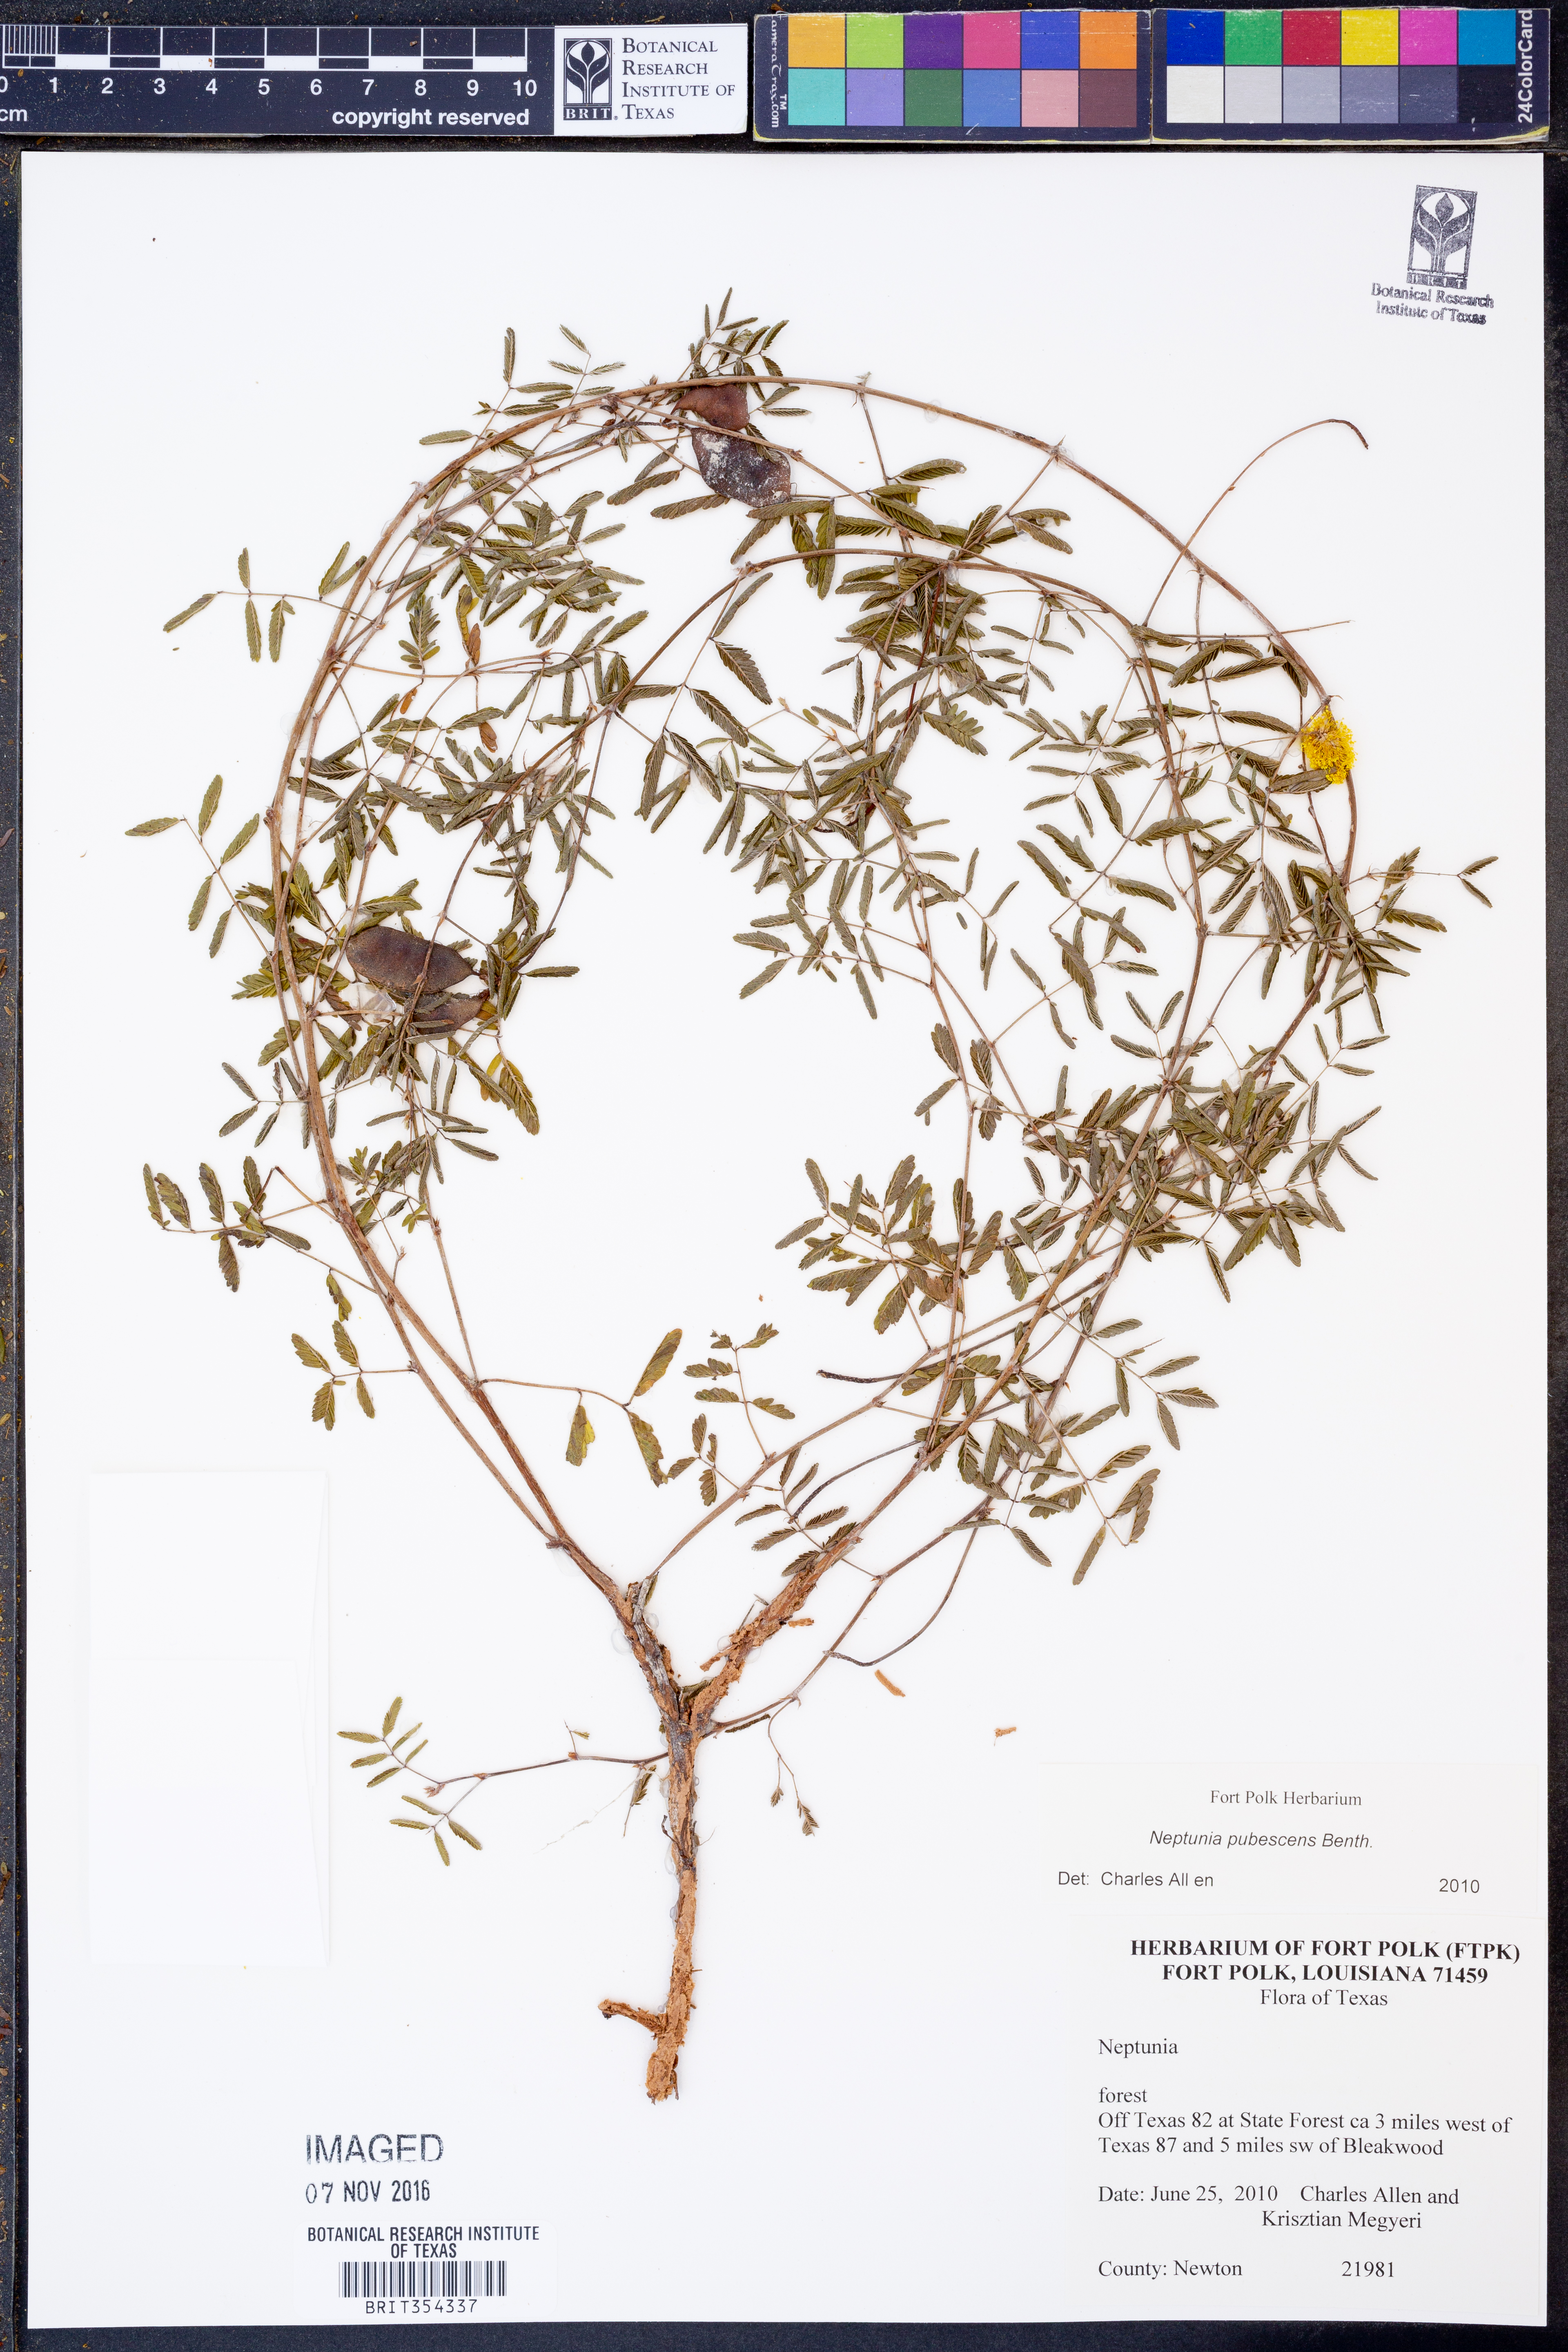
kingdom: Plantae
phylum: Tracheophyta
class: Magnoliopsida
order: Fabales
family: Fabaceae
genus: Neptunia
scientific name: Neptunia pubescens
